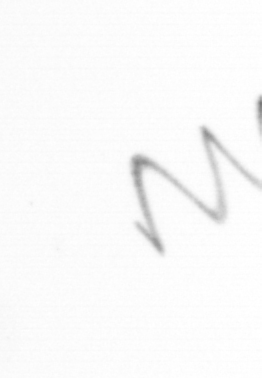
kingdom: Chromista
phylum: Ochrophyta
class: Bacillariophyceae
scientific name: Bacillariophyceae
